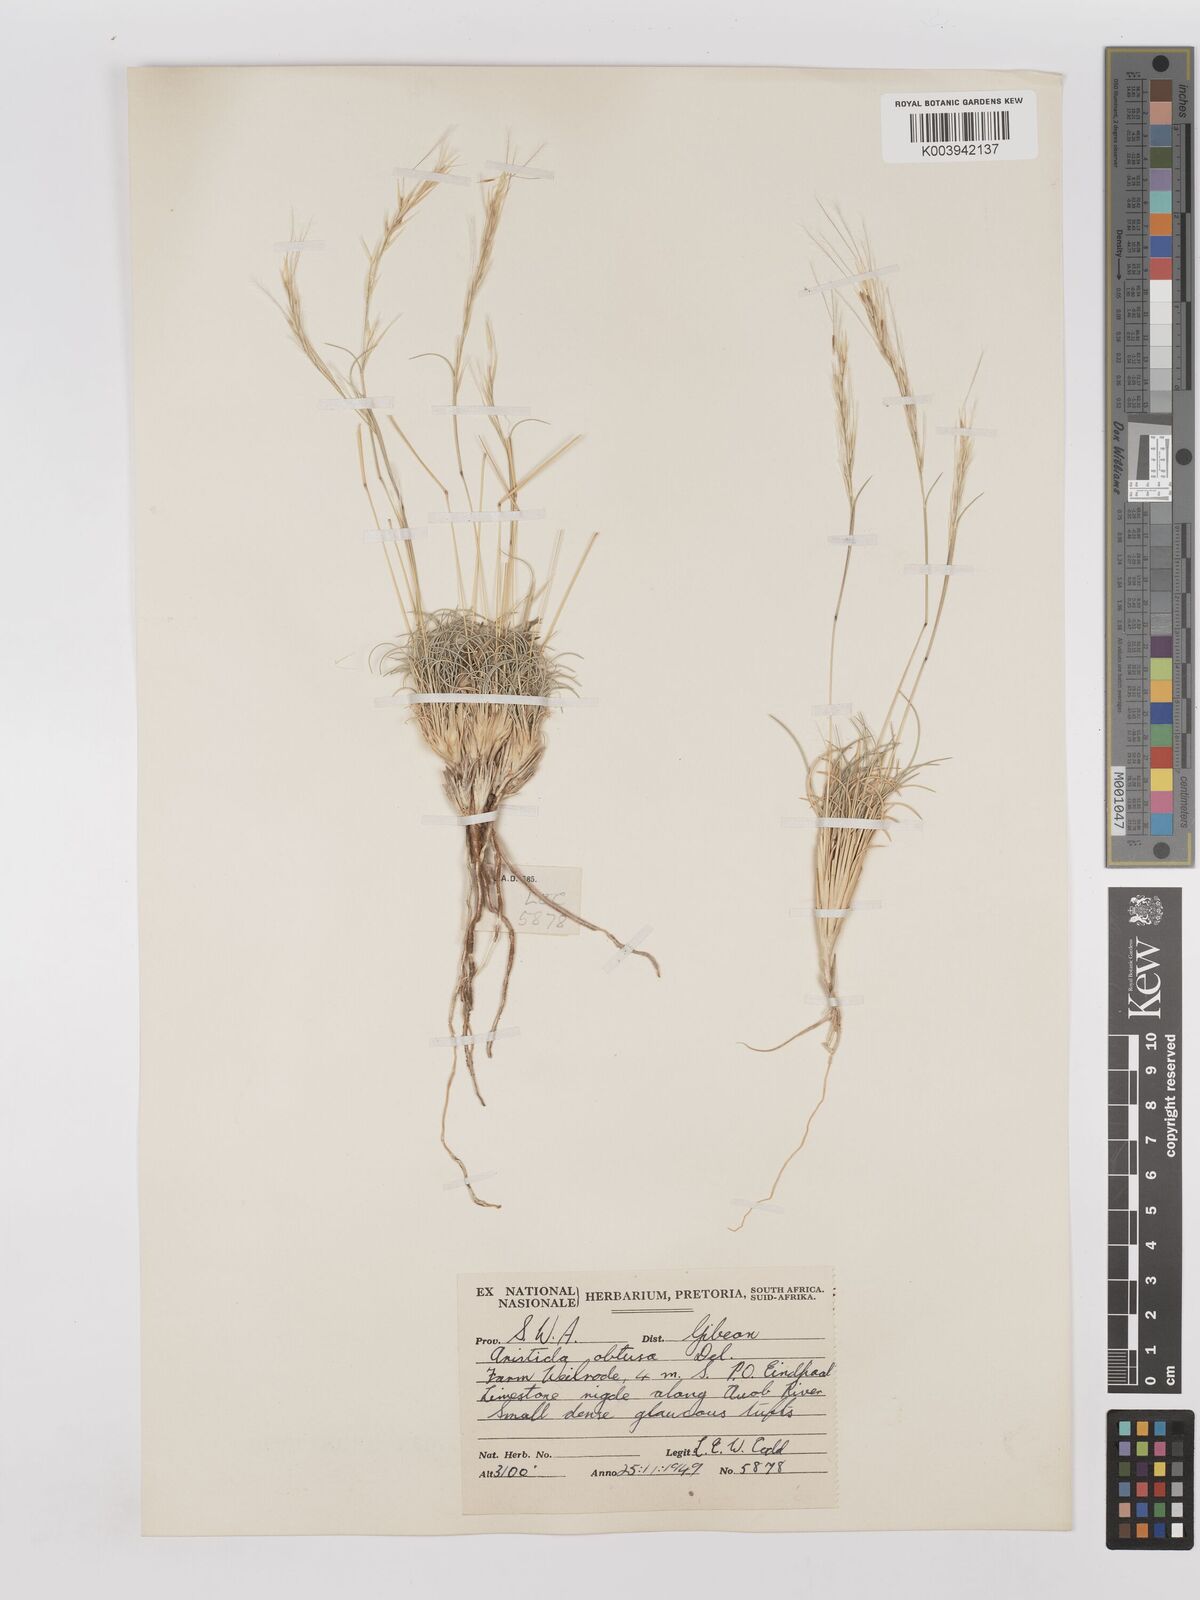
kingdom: Plantae
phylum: Tracheophyta
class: Liliopsida
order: Poales
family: Poaceae
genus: Stipagrostis
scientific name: Stipagrostis obtusa
